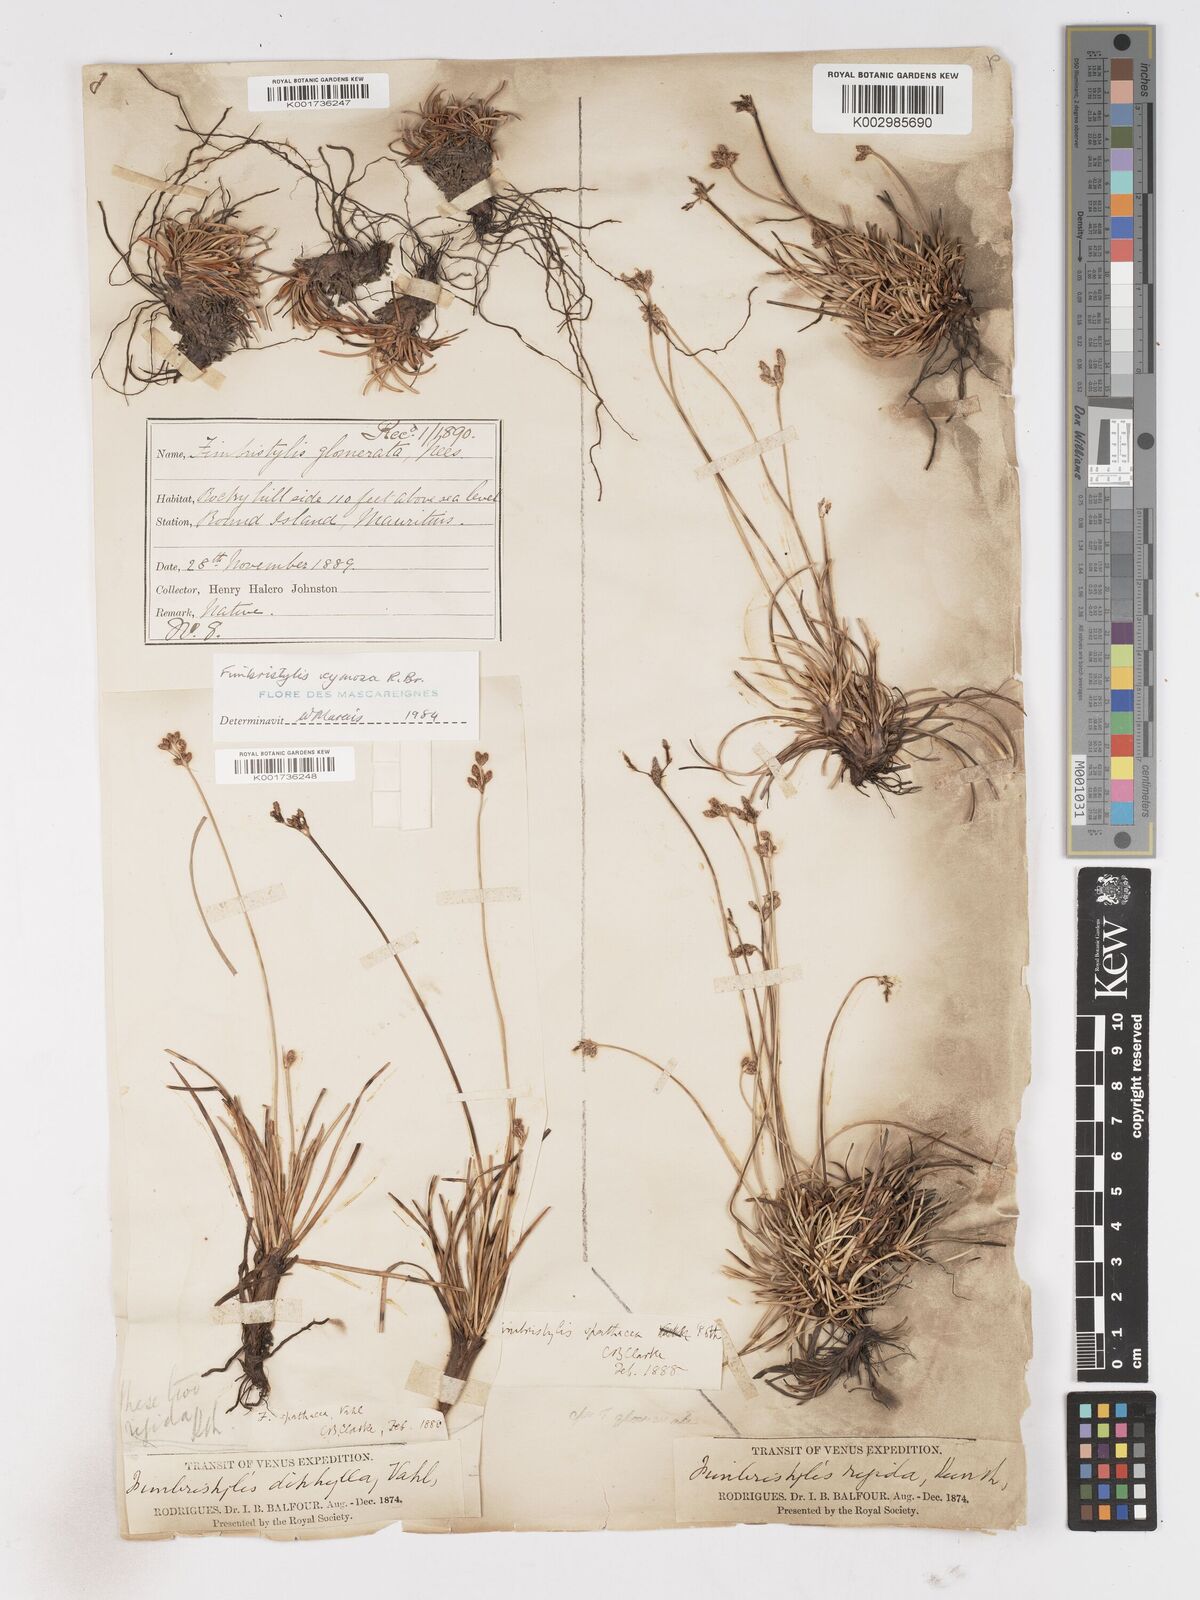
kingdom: Plantae
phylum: Tracheophyta
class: Liliopsida
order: Poales
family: Cyperaceae
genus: Fimbristylis
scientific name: Fimbristylis cymosa
